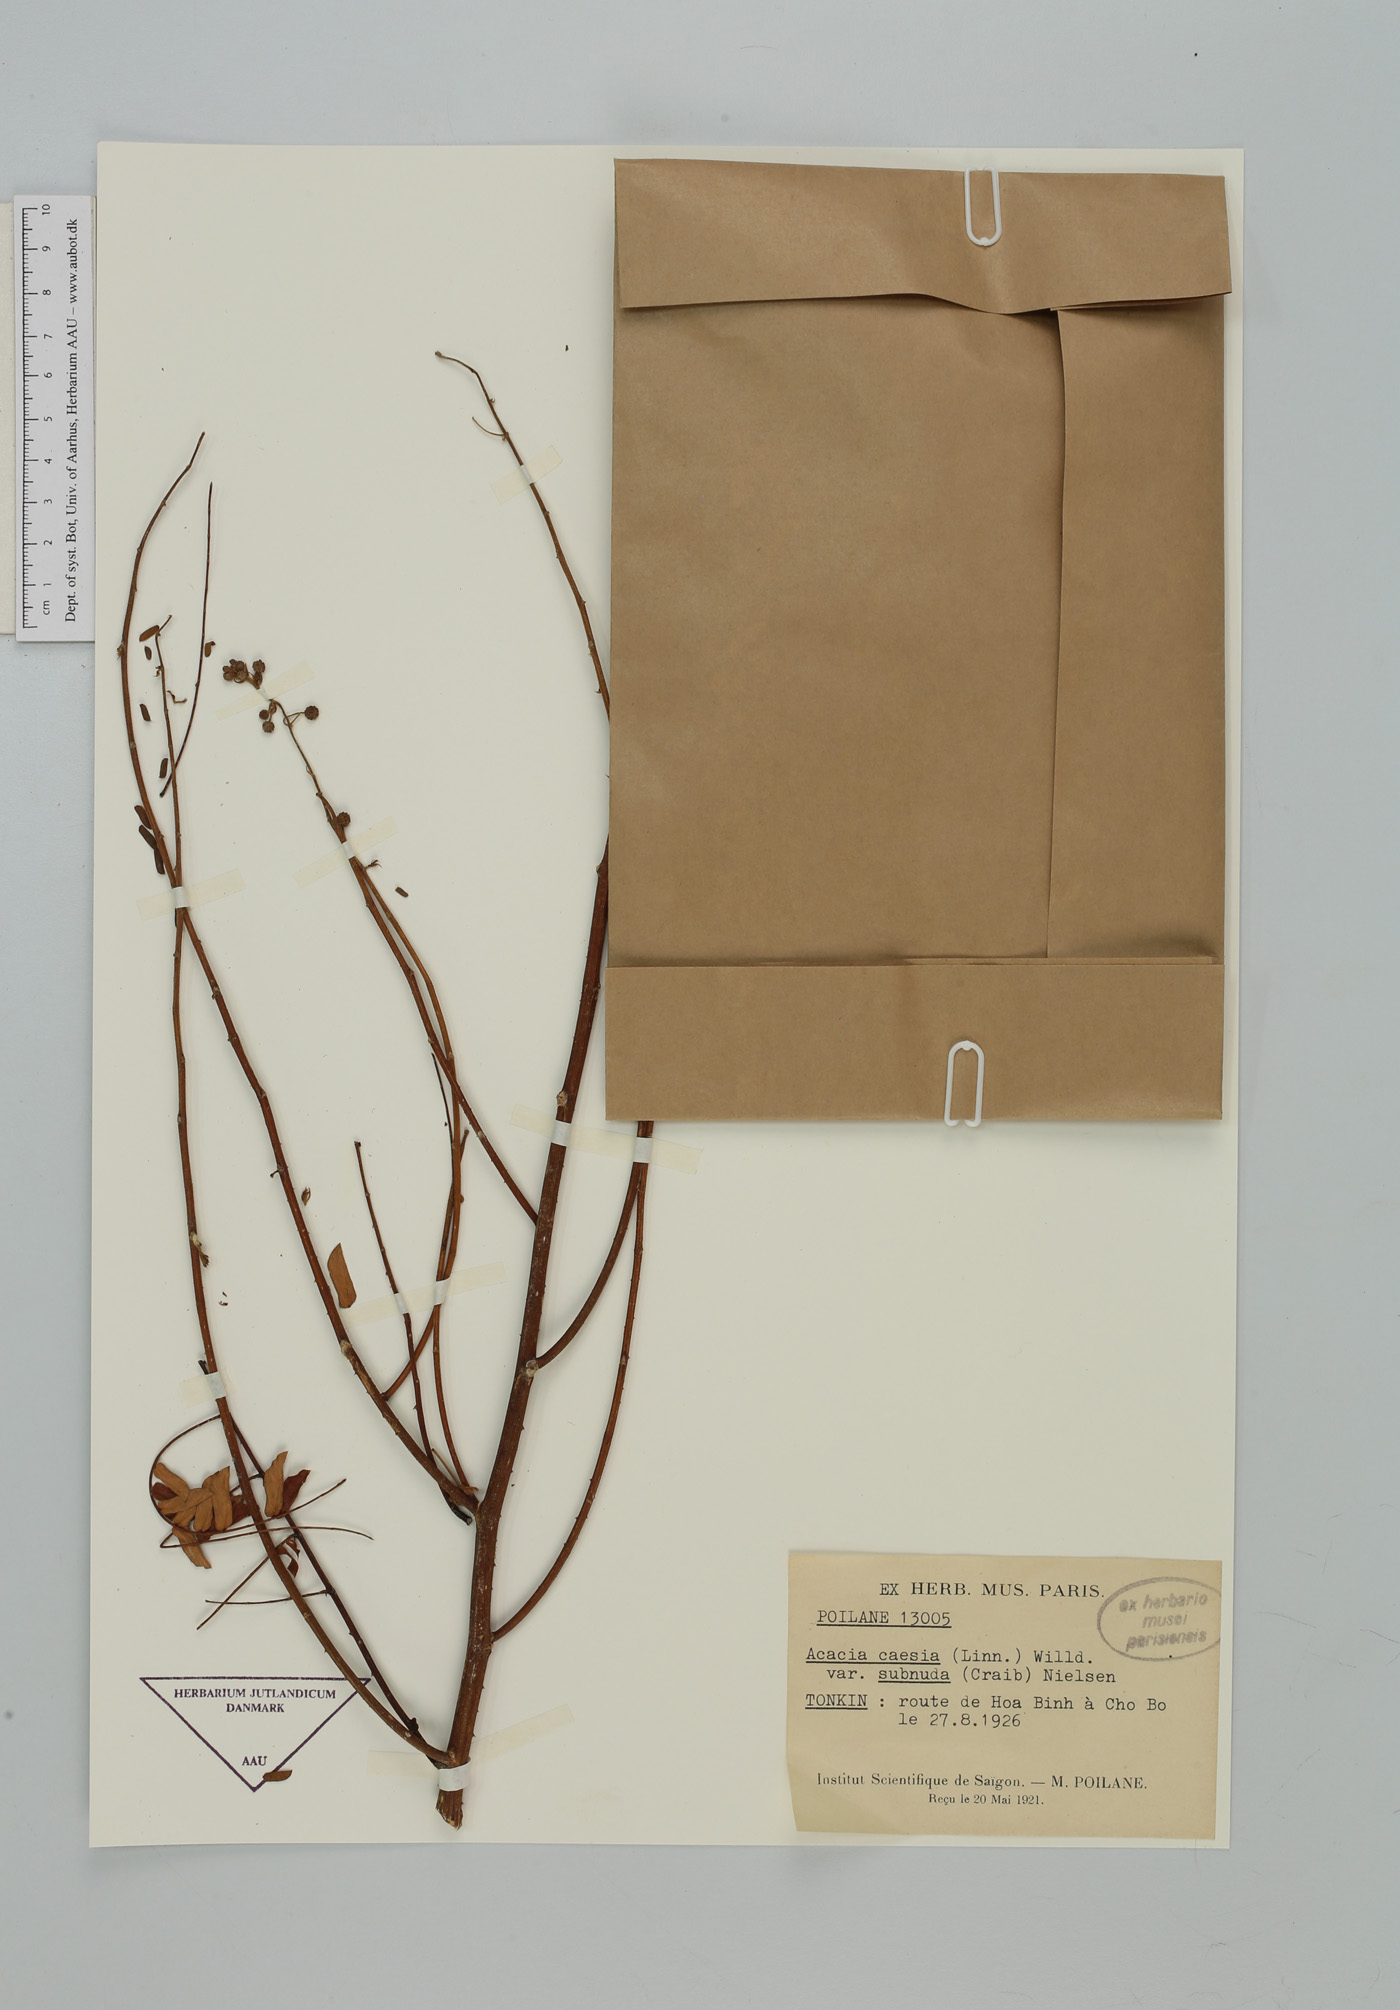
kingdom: Plantae
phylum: Tracheophyta
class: Magnoliopsida
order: Fabales
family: Fabaceae
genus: Senegalia
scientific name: Senegalia caesia
